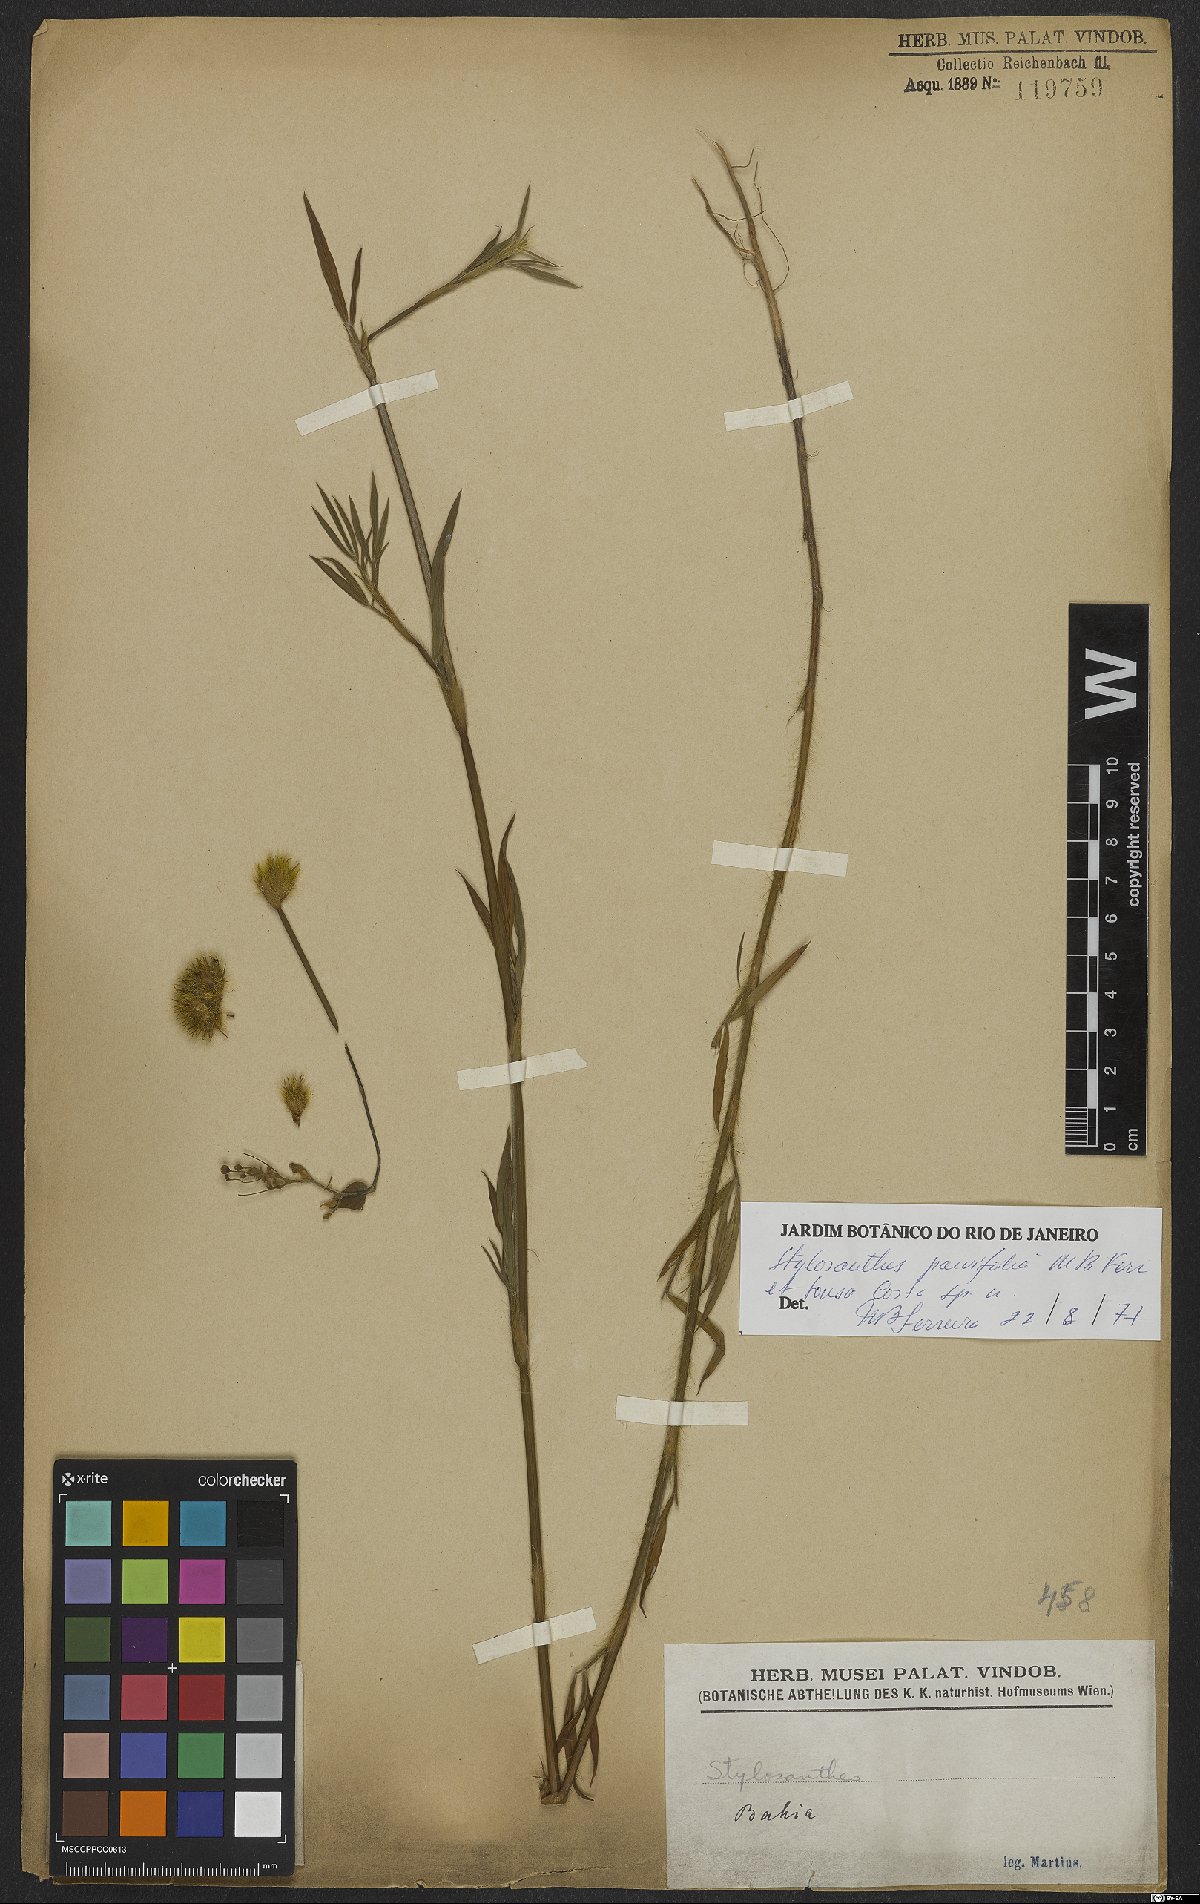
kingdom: Plantae
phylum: Tracheophyta
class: Magnoliopsida
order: Fabales
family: Fabaceae
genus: Stylosanthes
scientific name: Stylosanthes
